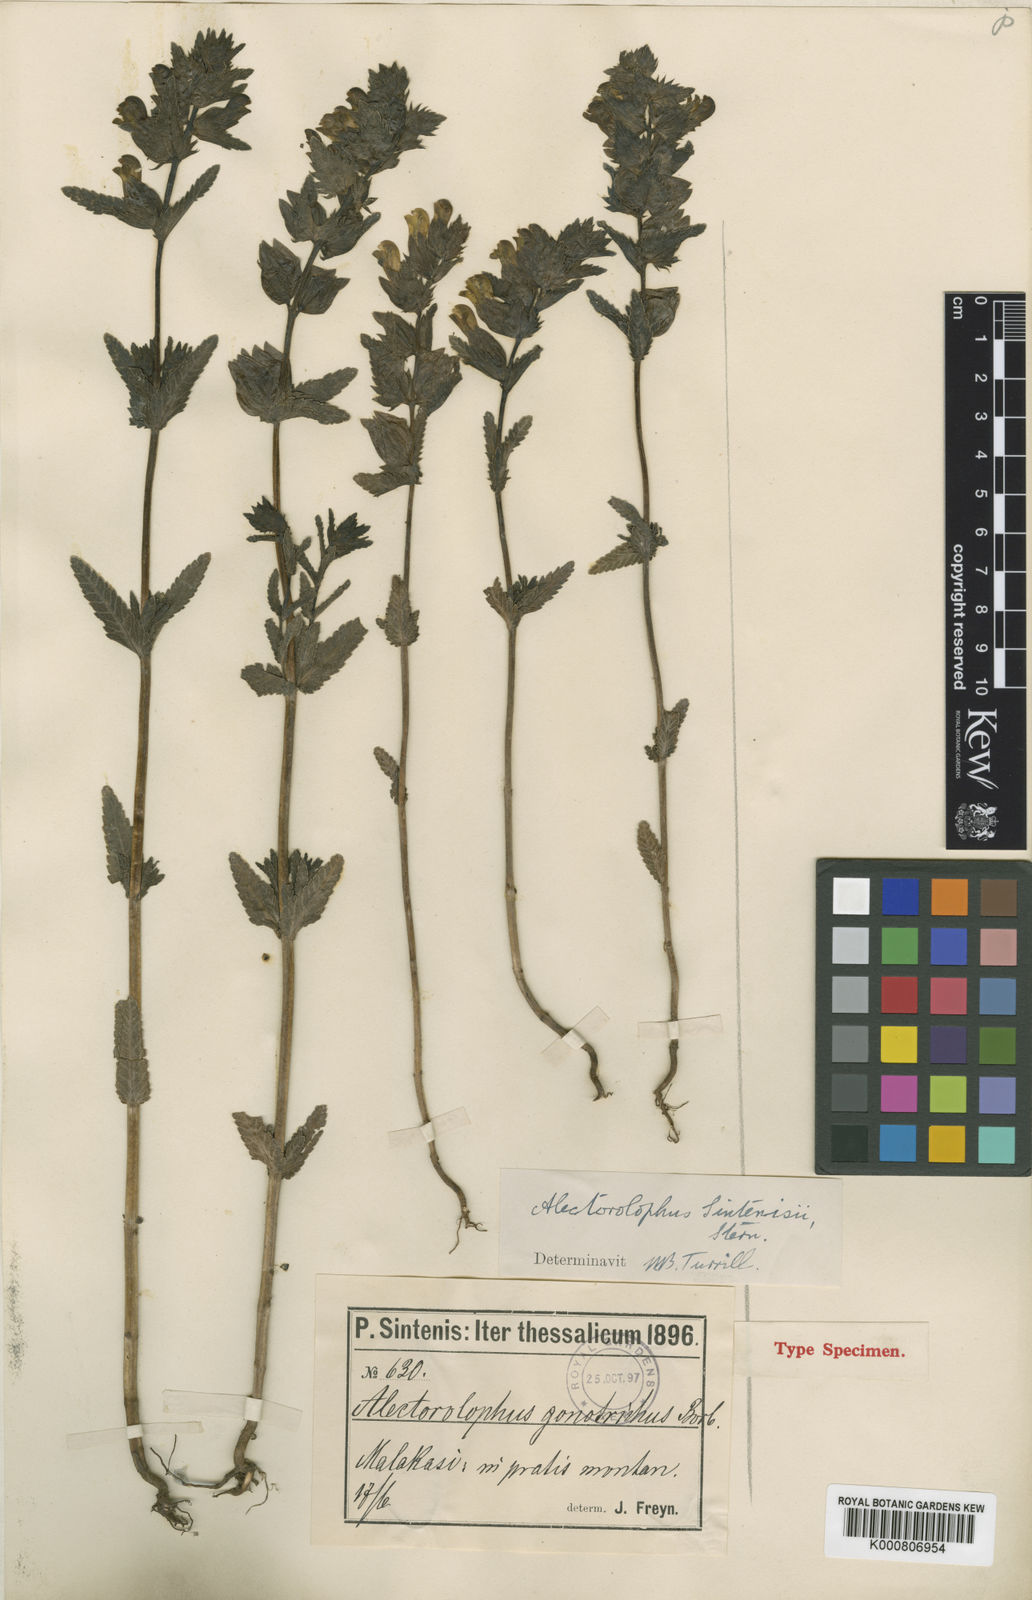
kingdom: Plantae
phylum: Tracheophyta
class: Magnoliopsida
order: Lamiales
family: Orobanchaceae
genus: Rhinanthus
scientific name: Rhinanthus
